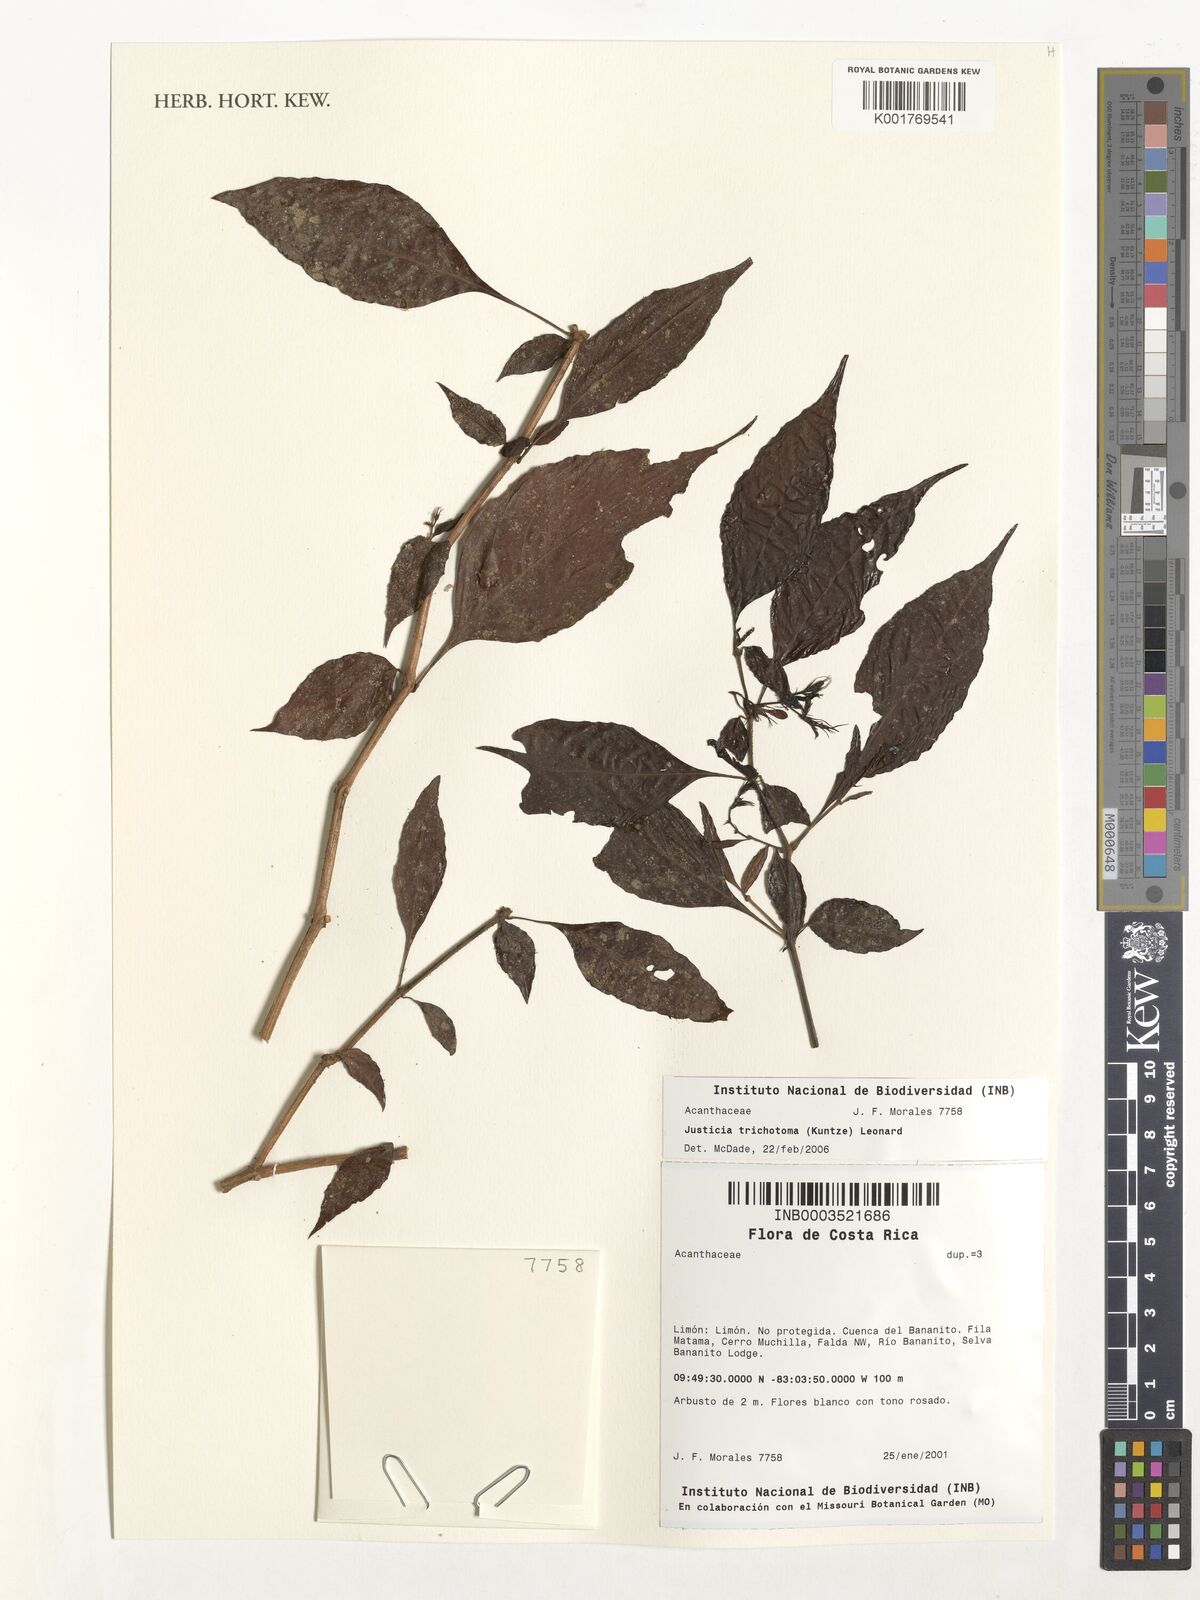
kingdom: Plantae
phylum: Tracheophyta
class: Magnoliopsida
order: Lamiales
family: Acanthaceae
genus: Justicia
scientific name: Justicia trichotoma
